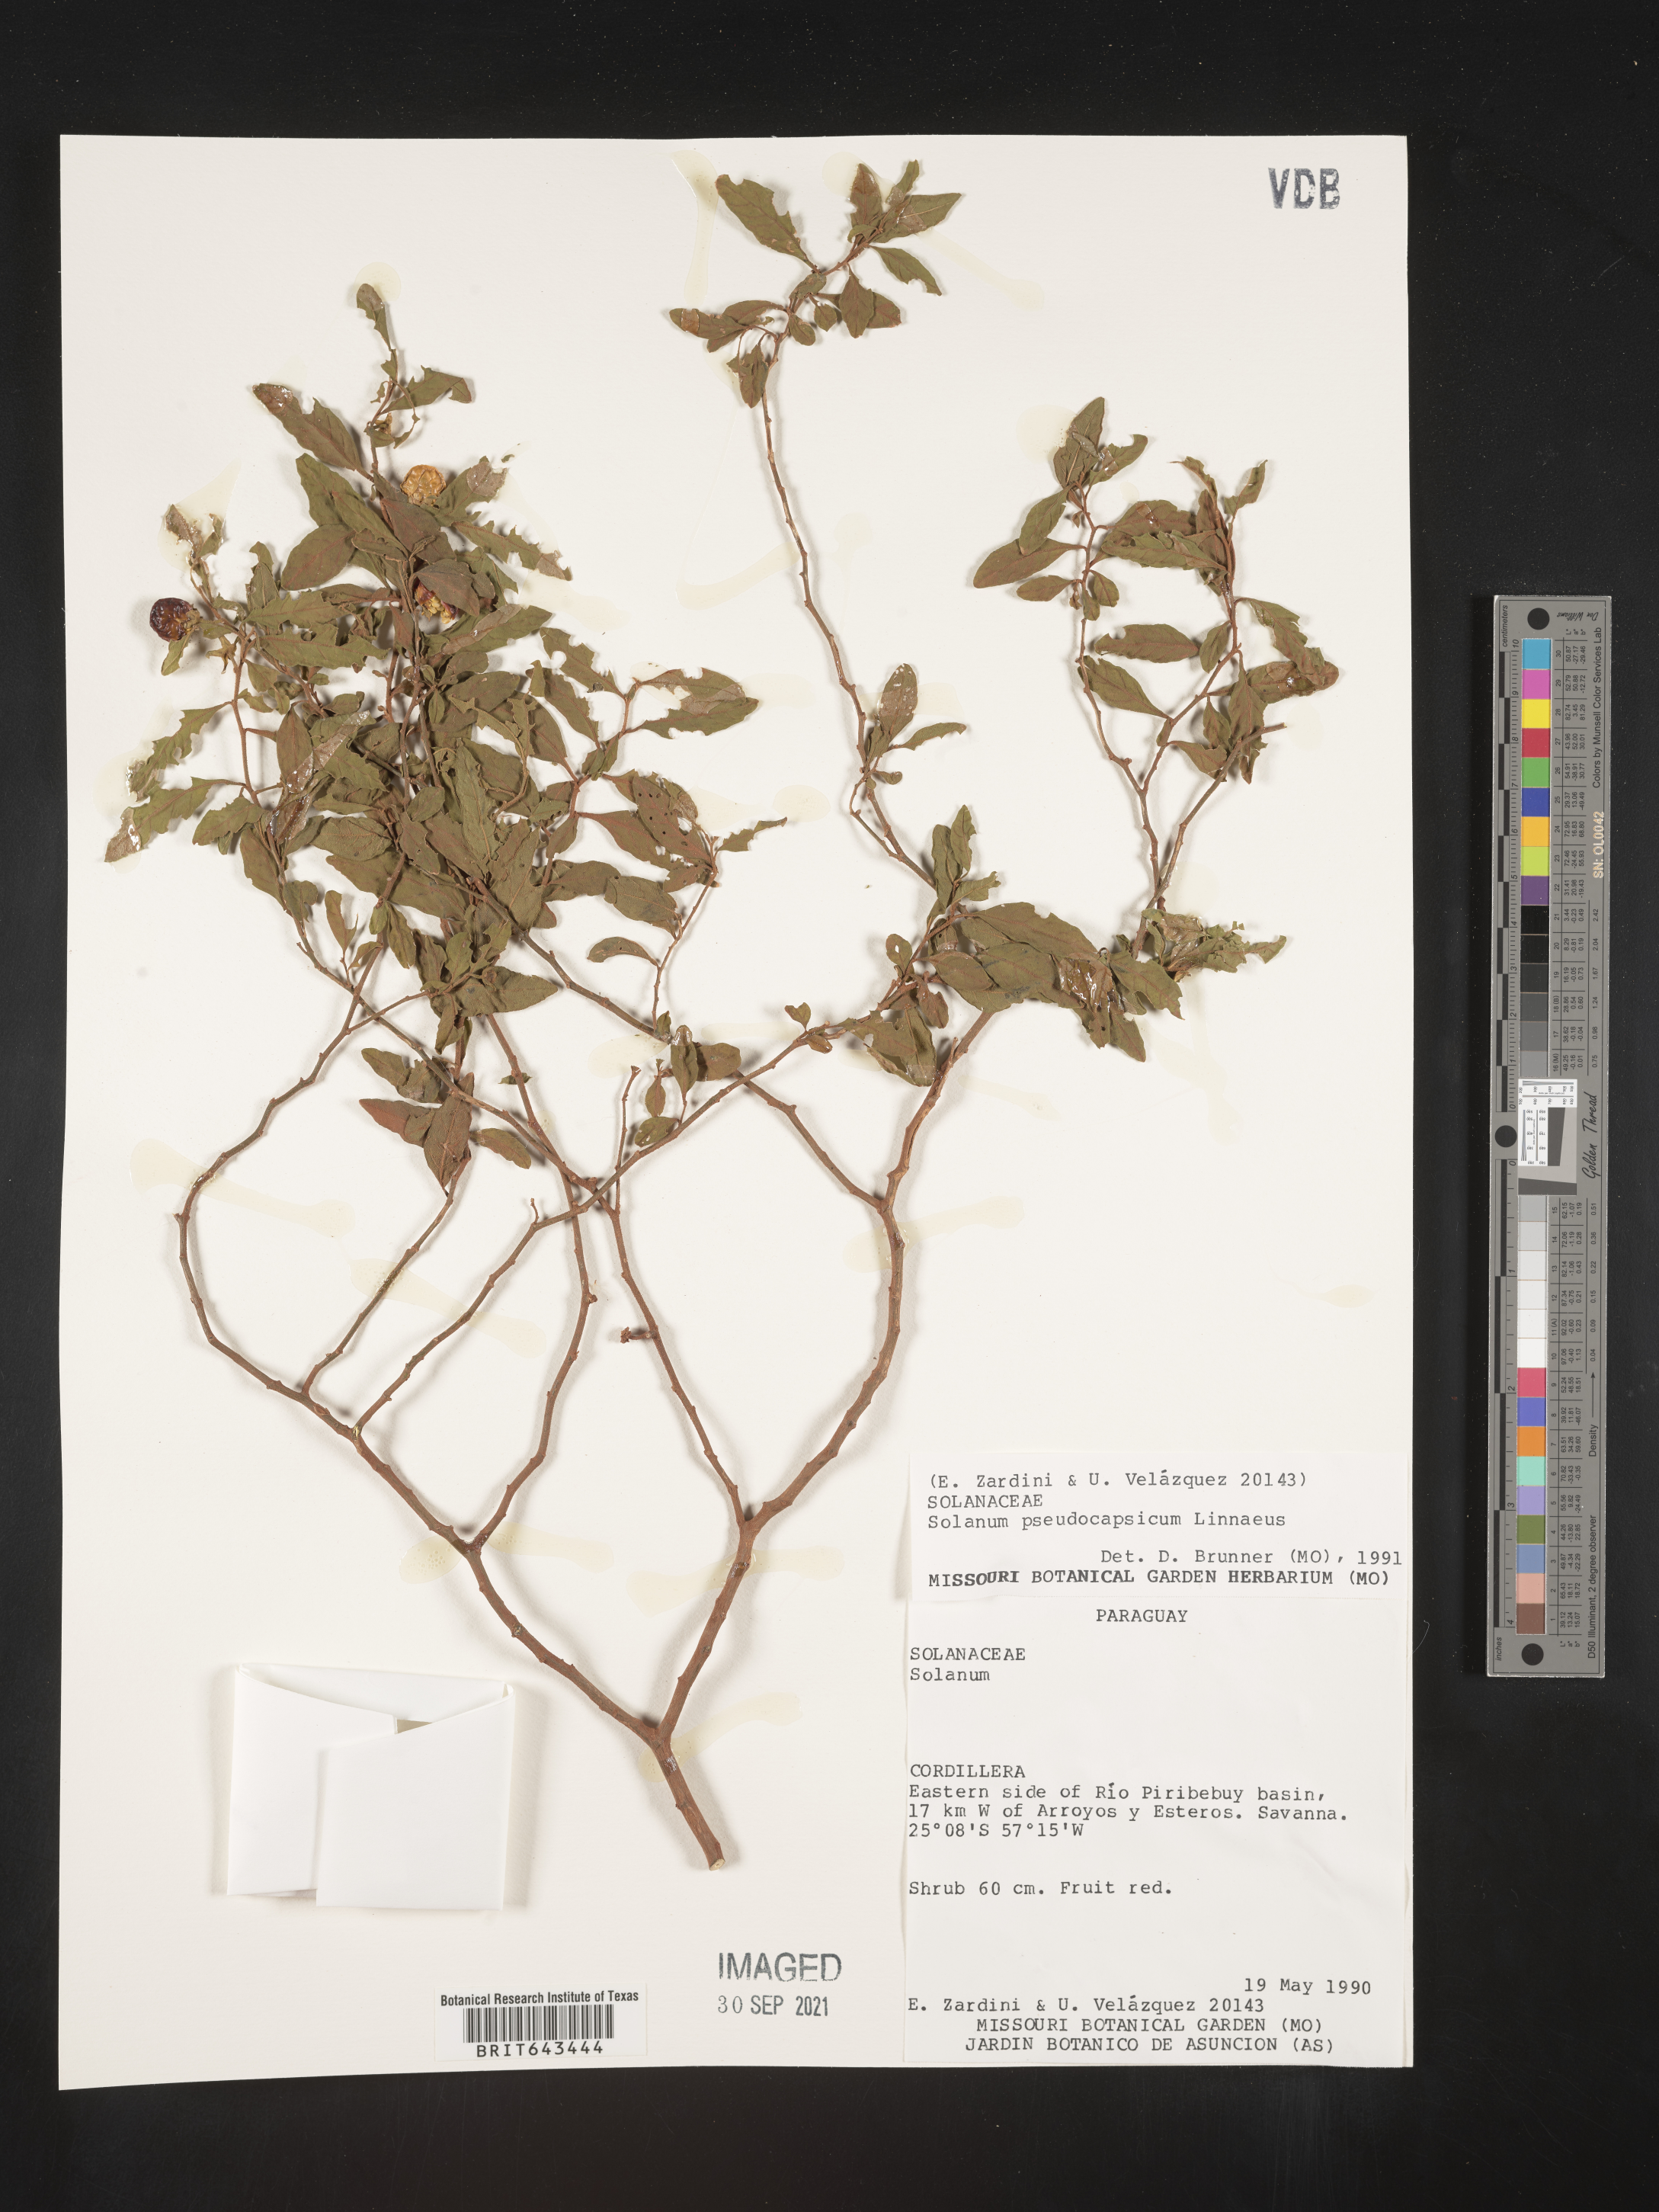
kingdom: Plantae
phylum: Tracheophyta
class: Magnoliopsida
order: Solanales
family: Solanaceae
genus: Solanum
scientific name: Solanum
